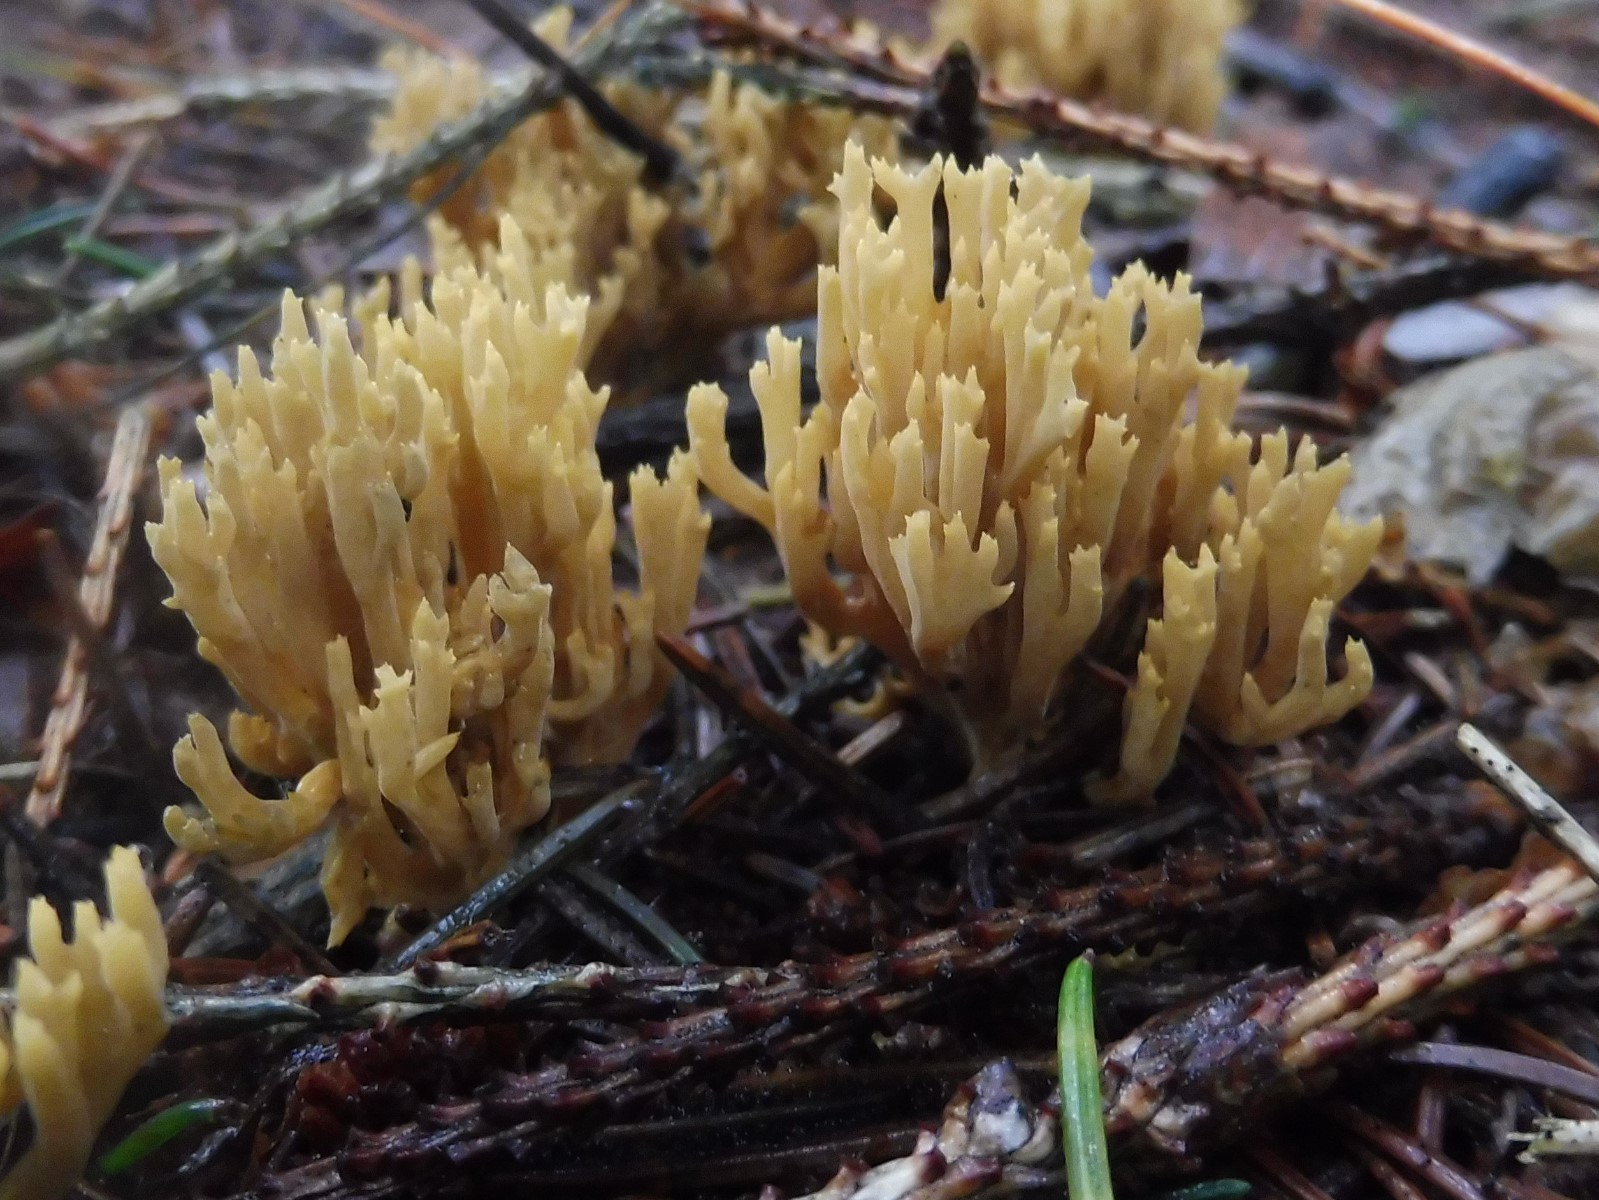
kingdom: Fungi
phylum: Basidiomycota
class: Agaricomycetes
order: Gomphales
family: Gomphaceae
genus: Phaeoclavulina
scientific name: Phaeoclavulina eumorpha
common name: gran-koralsvamp
